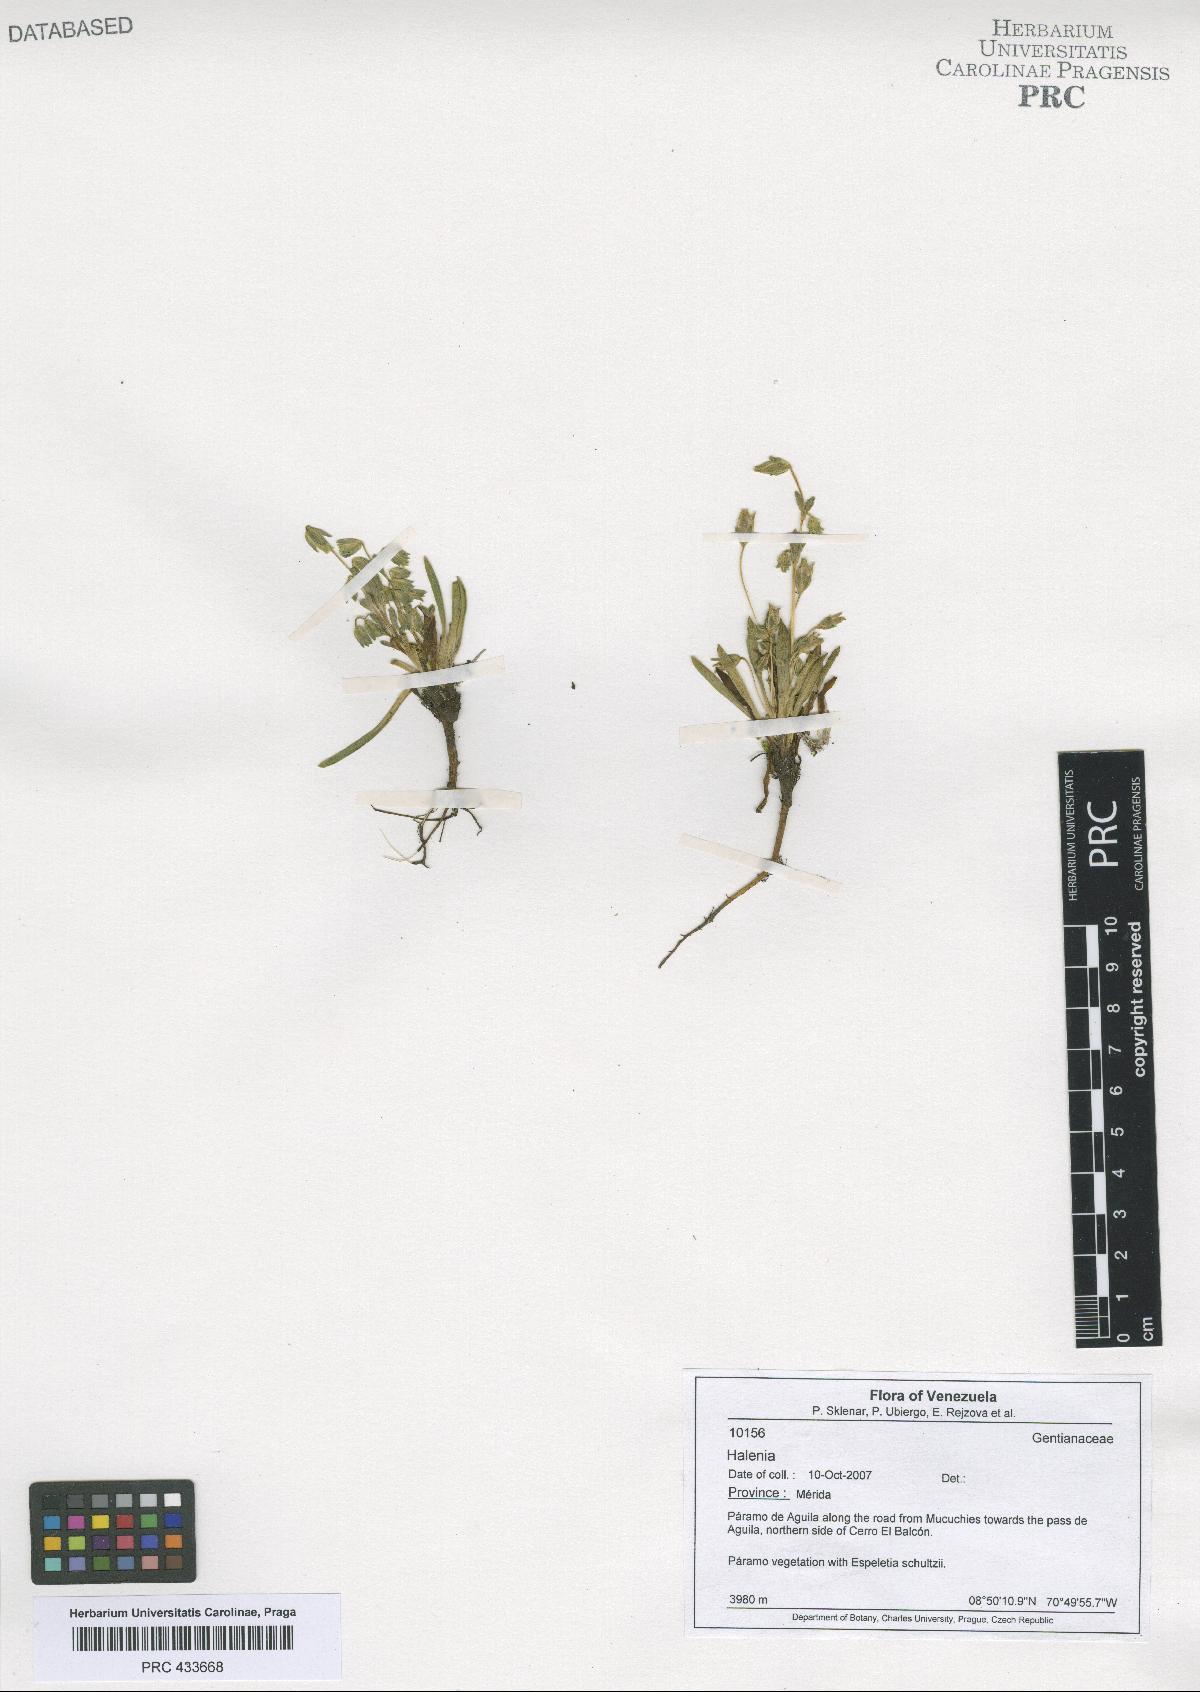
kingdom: Plantae
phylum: Tracheophyta
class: Magnoliopsida
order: Gentianales
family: Gentianaceae
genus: Halenia
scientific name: Halenia
